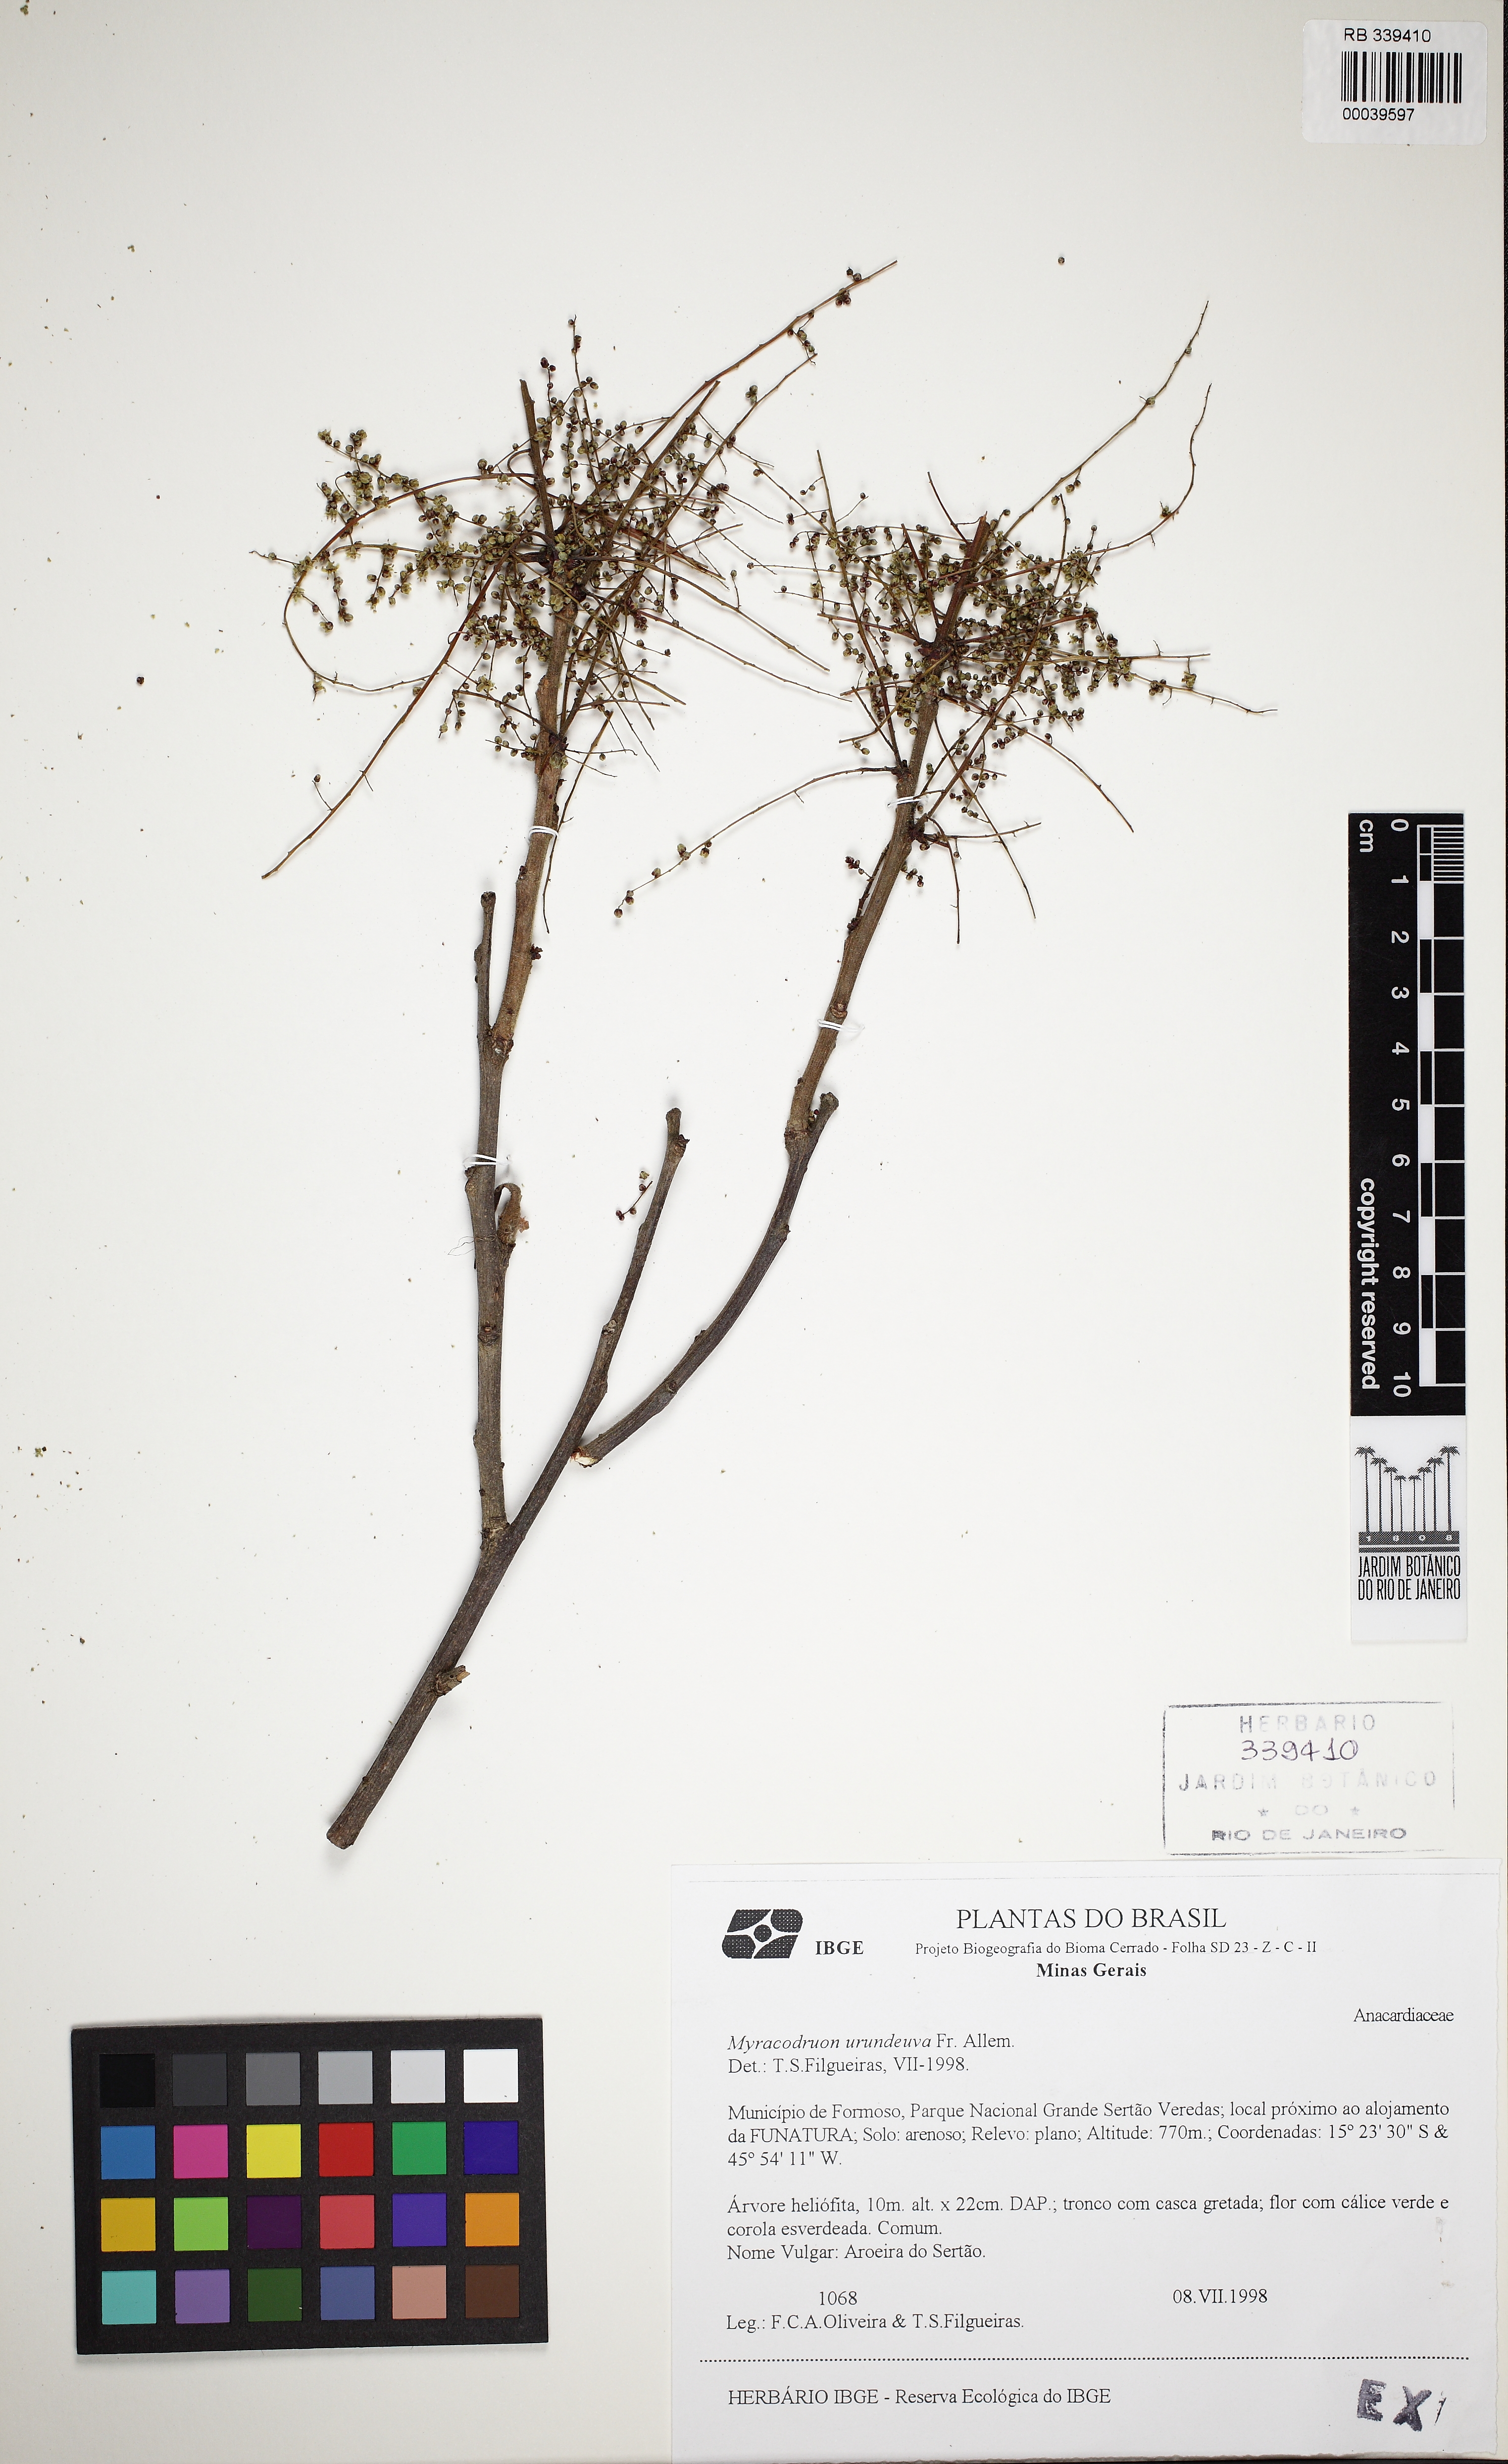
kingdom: Plantae
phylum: Tracheophyta
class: Magnoliopsida
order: Sapindales
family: Anacardiaceae
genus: Myracrodruon
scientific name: Myracrodruon urundeuva
